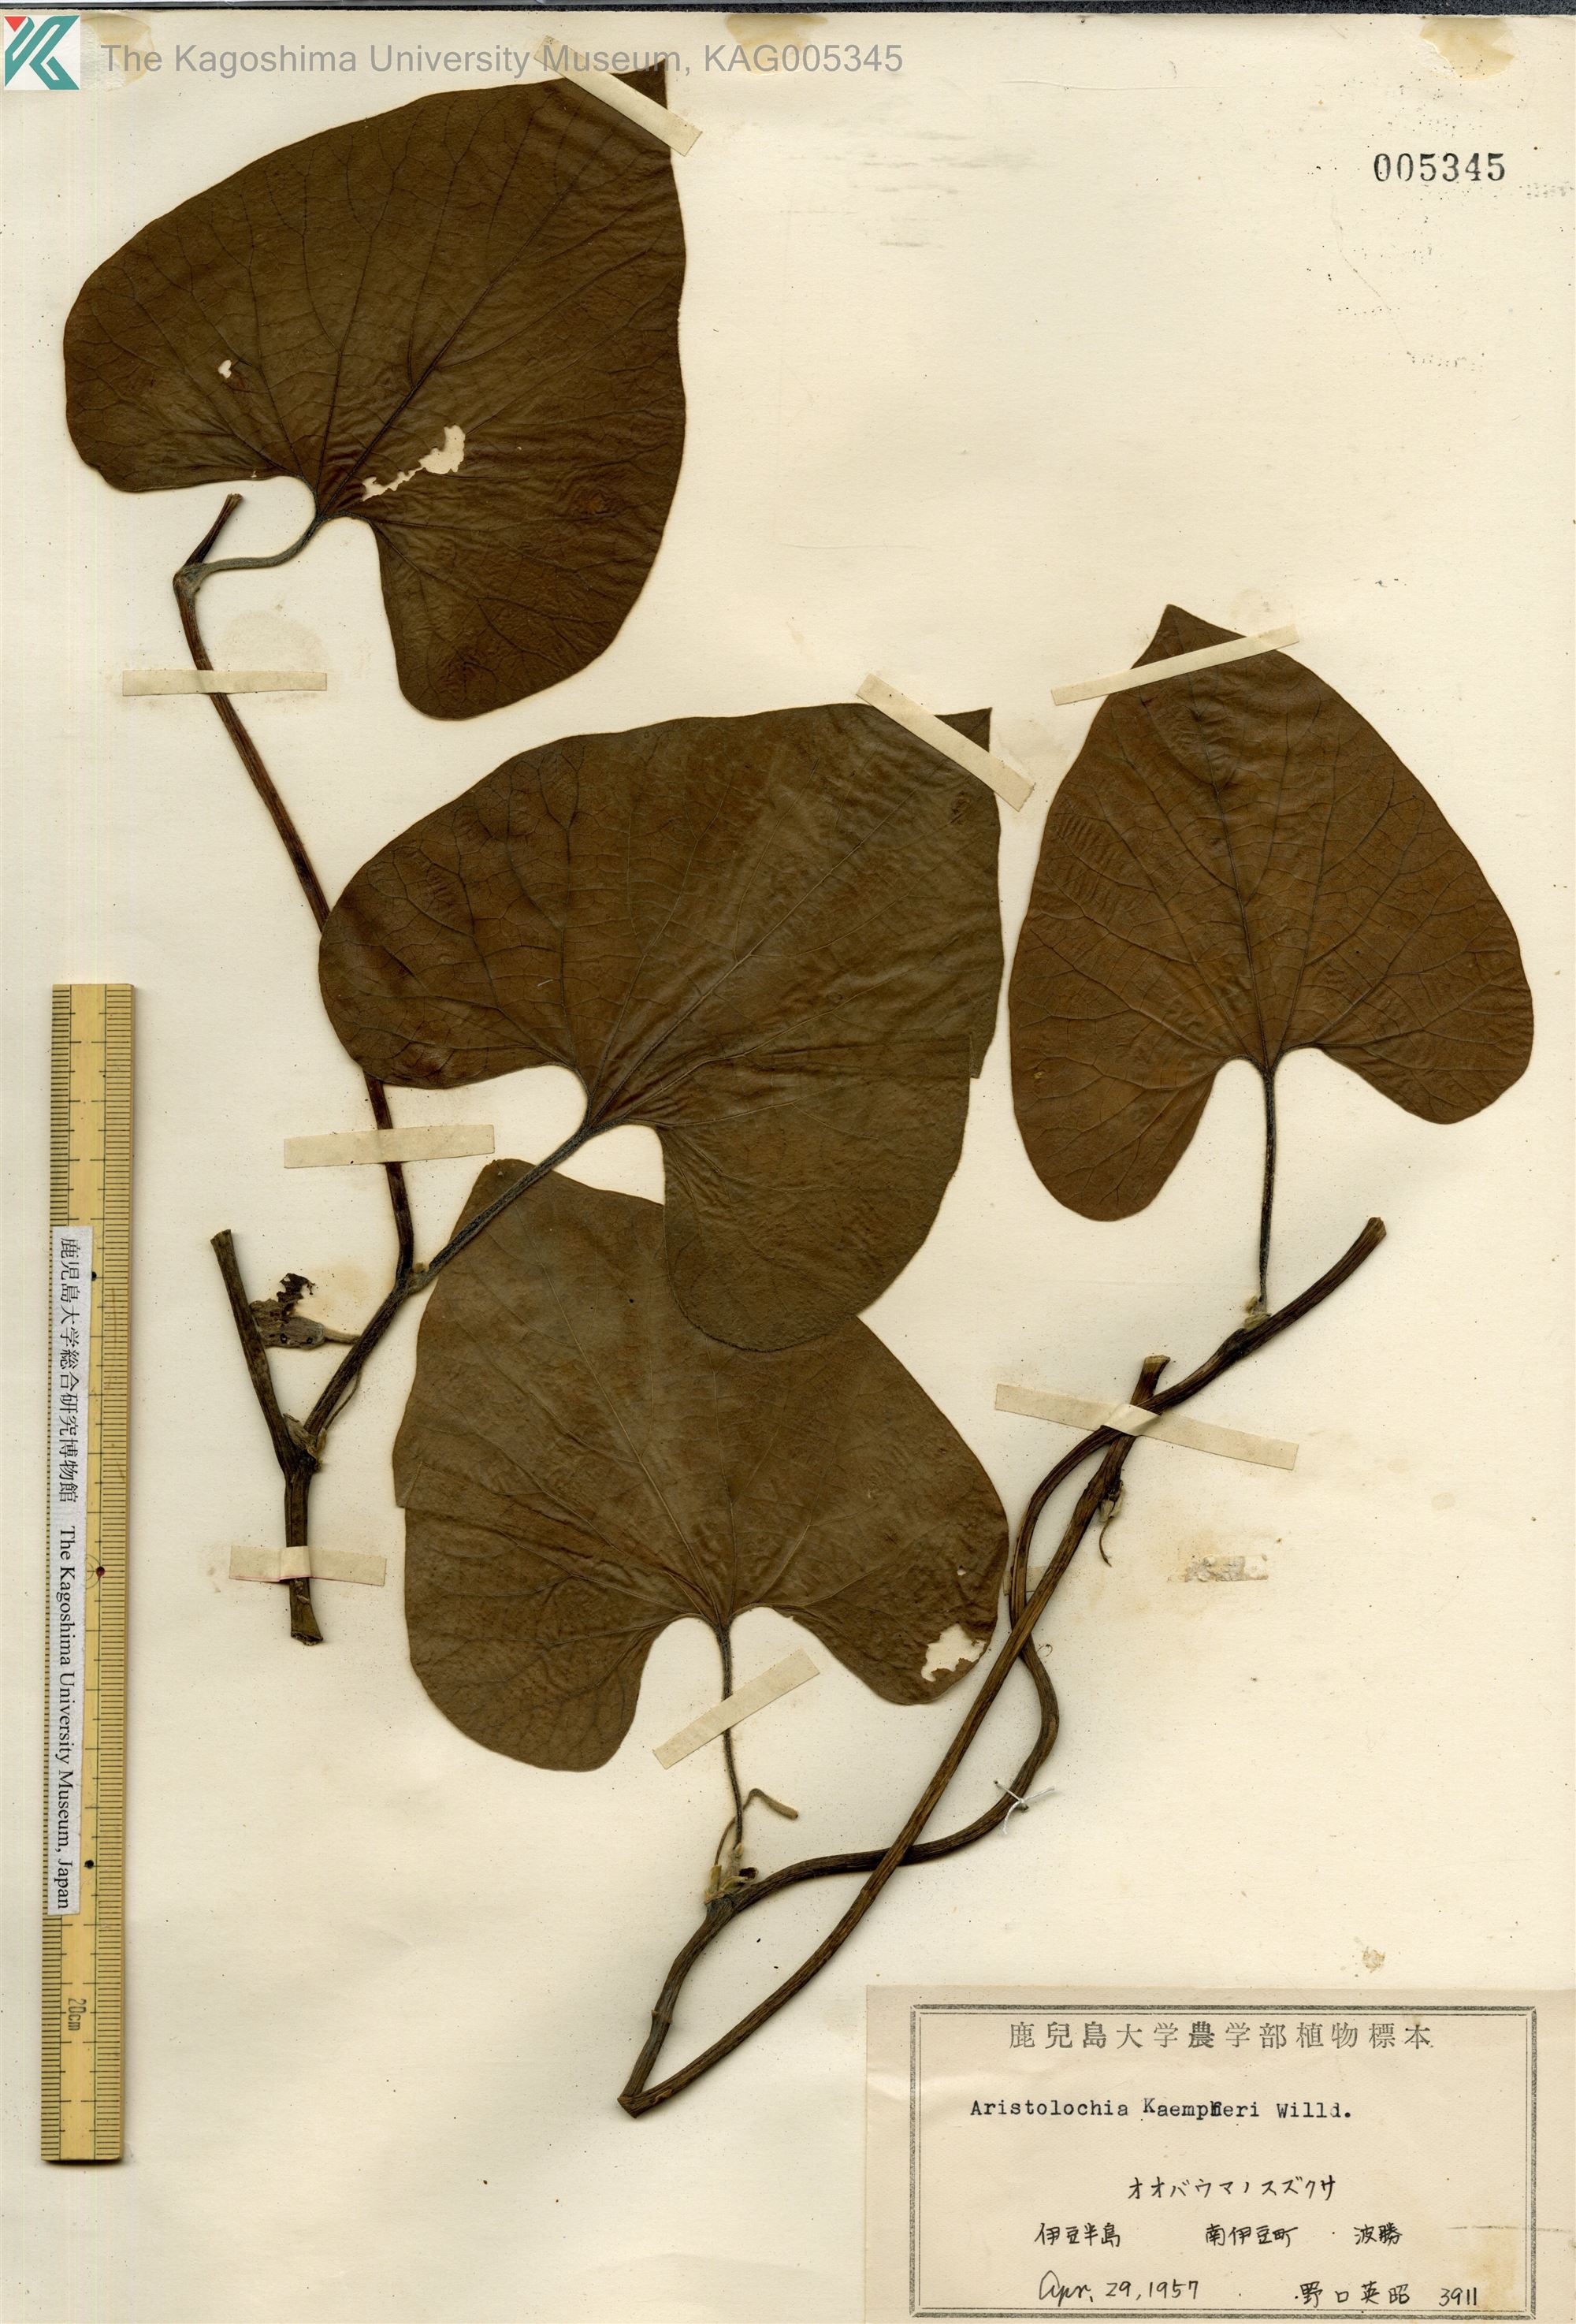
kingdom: Plantae
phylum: Tracheophyta
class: Magnoliopsida
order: Piperales
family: Aristolochiaceae
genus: Isotrema
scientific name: Isotrema kaempferi
